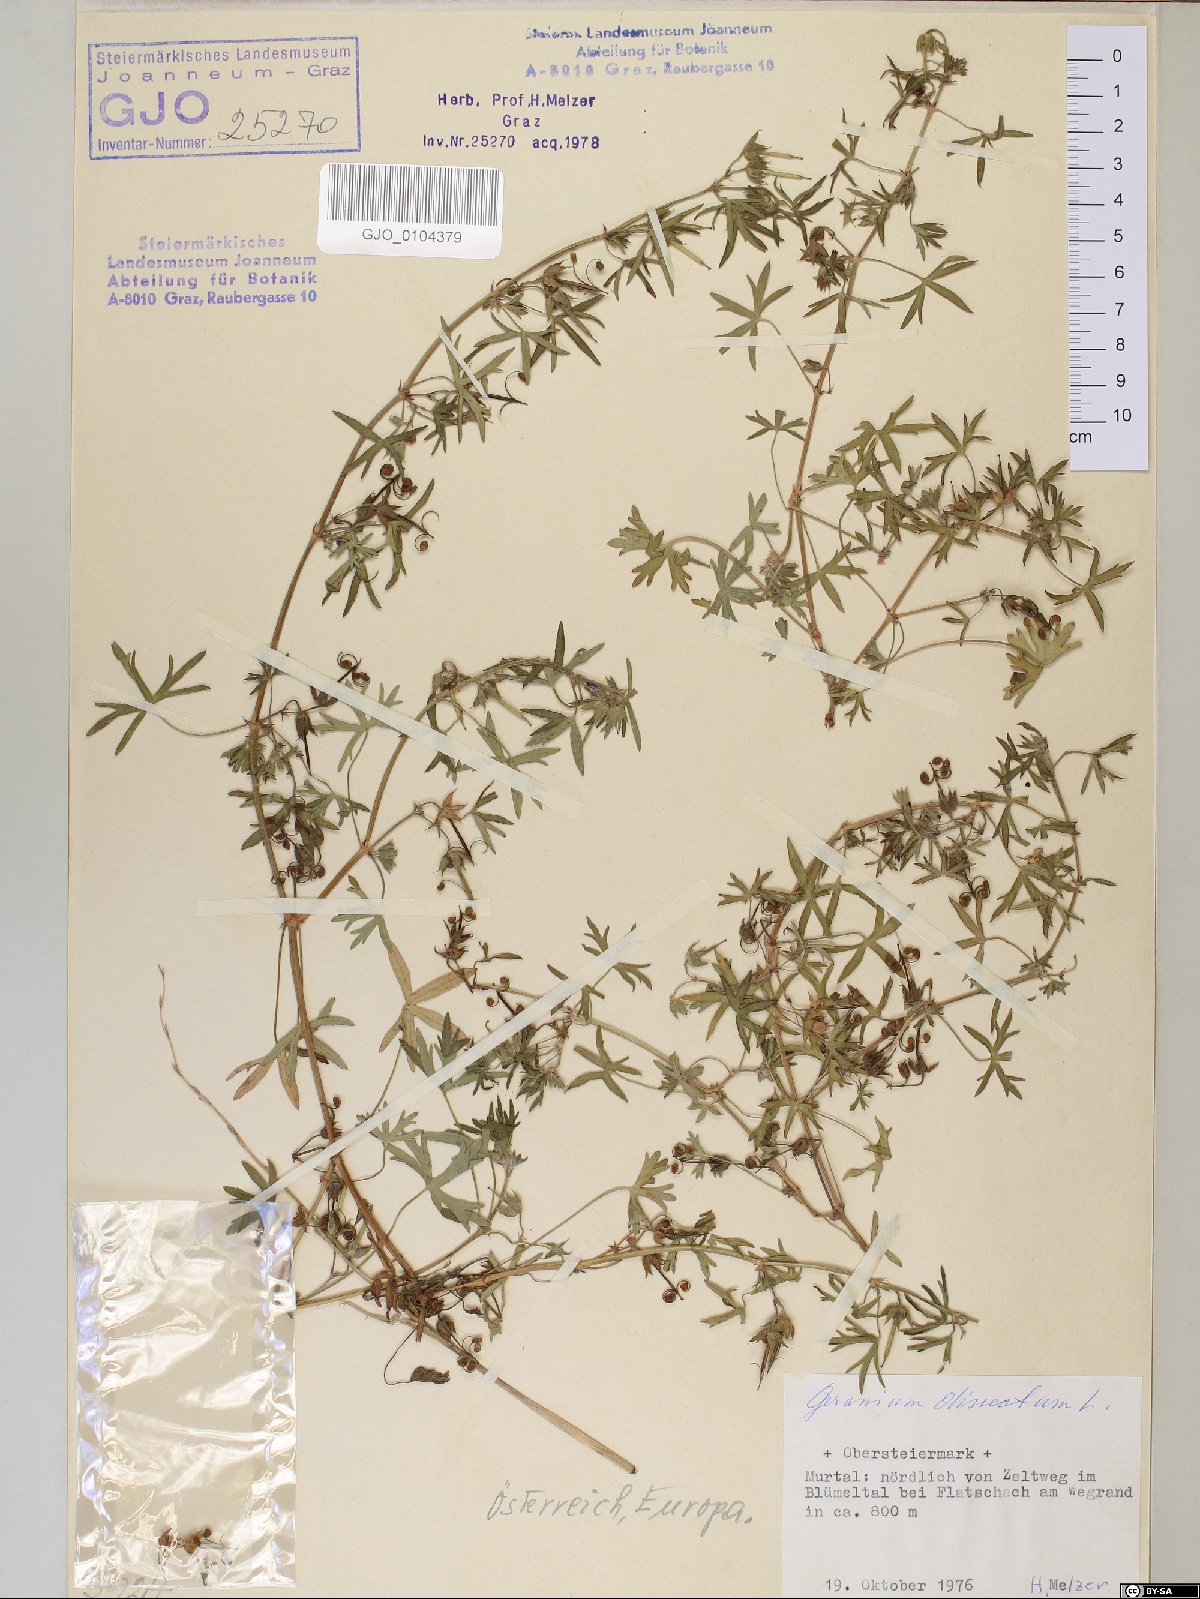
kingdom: Plantae
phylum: Tracheophyta
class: Magnoliopsida
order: Geraniales
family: Geraniaceae
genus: Geranium
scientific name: Geranium dissectum
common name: Cut-leaved crane's-bill
